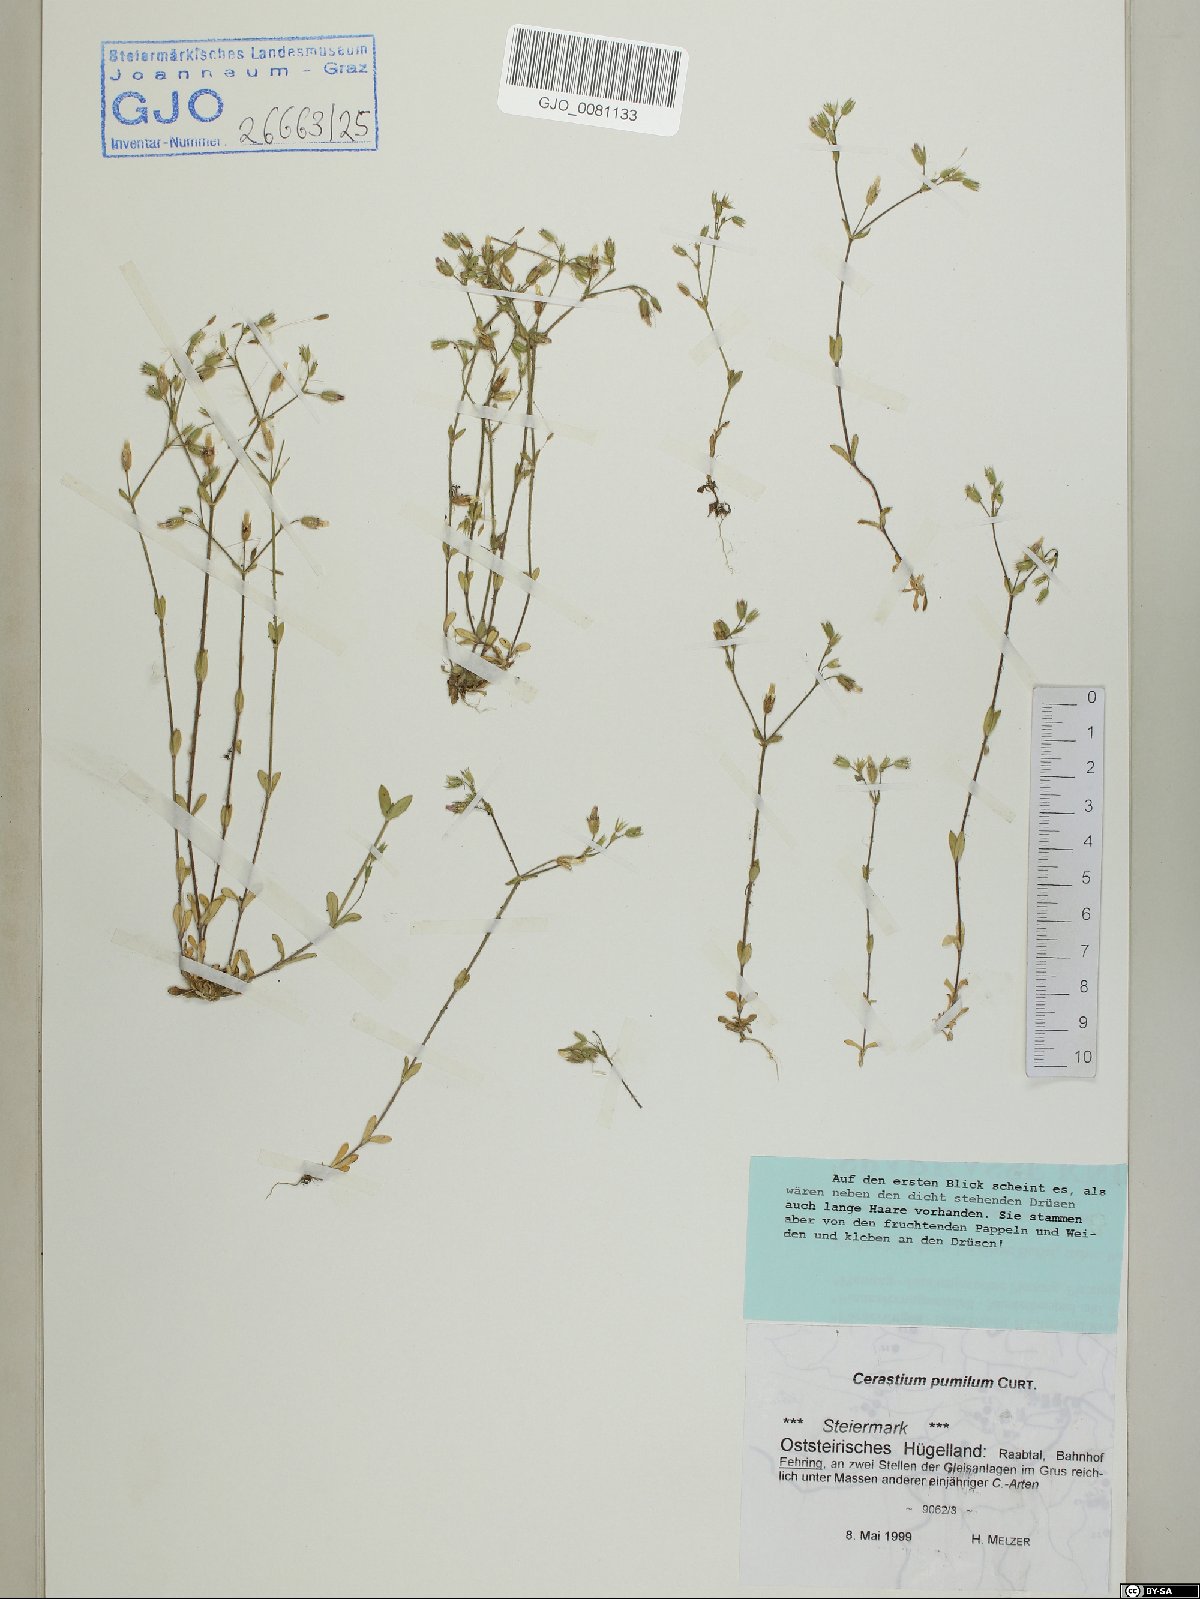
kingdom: Plantae
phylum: Tracheophyta
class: Magnoliopsida
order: Caryophyllales
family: Caryophyllaceae
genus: Cerastium
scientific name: Cerastium pumilum
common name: Dwarf mouse-ear
